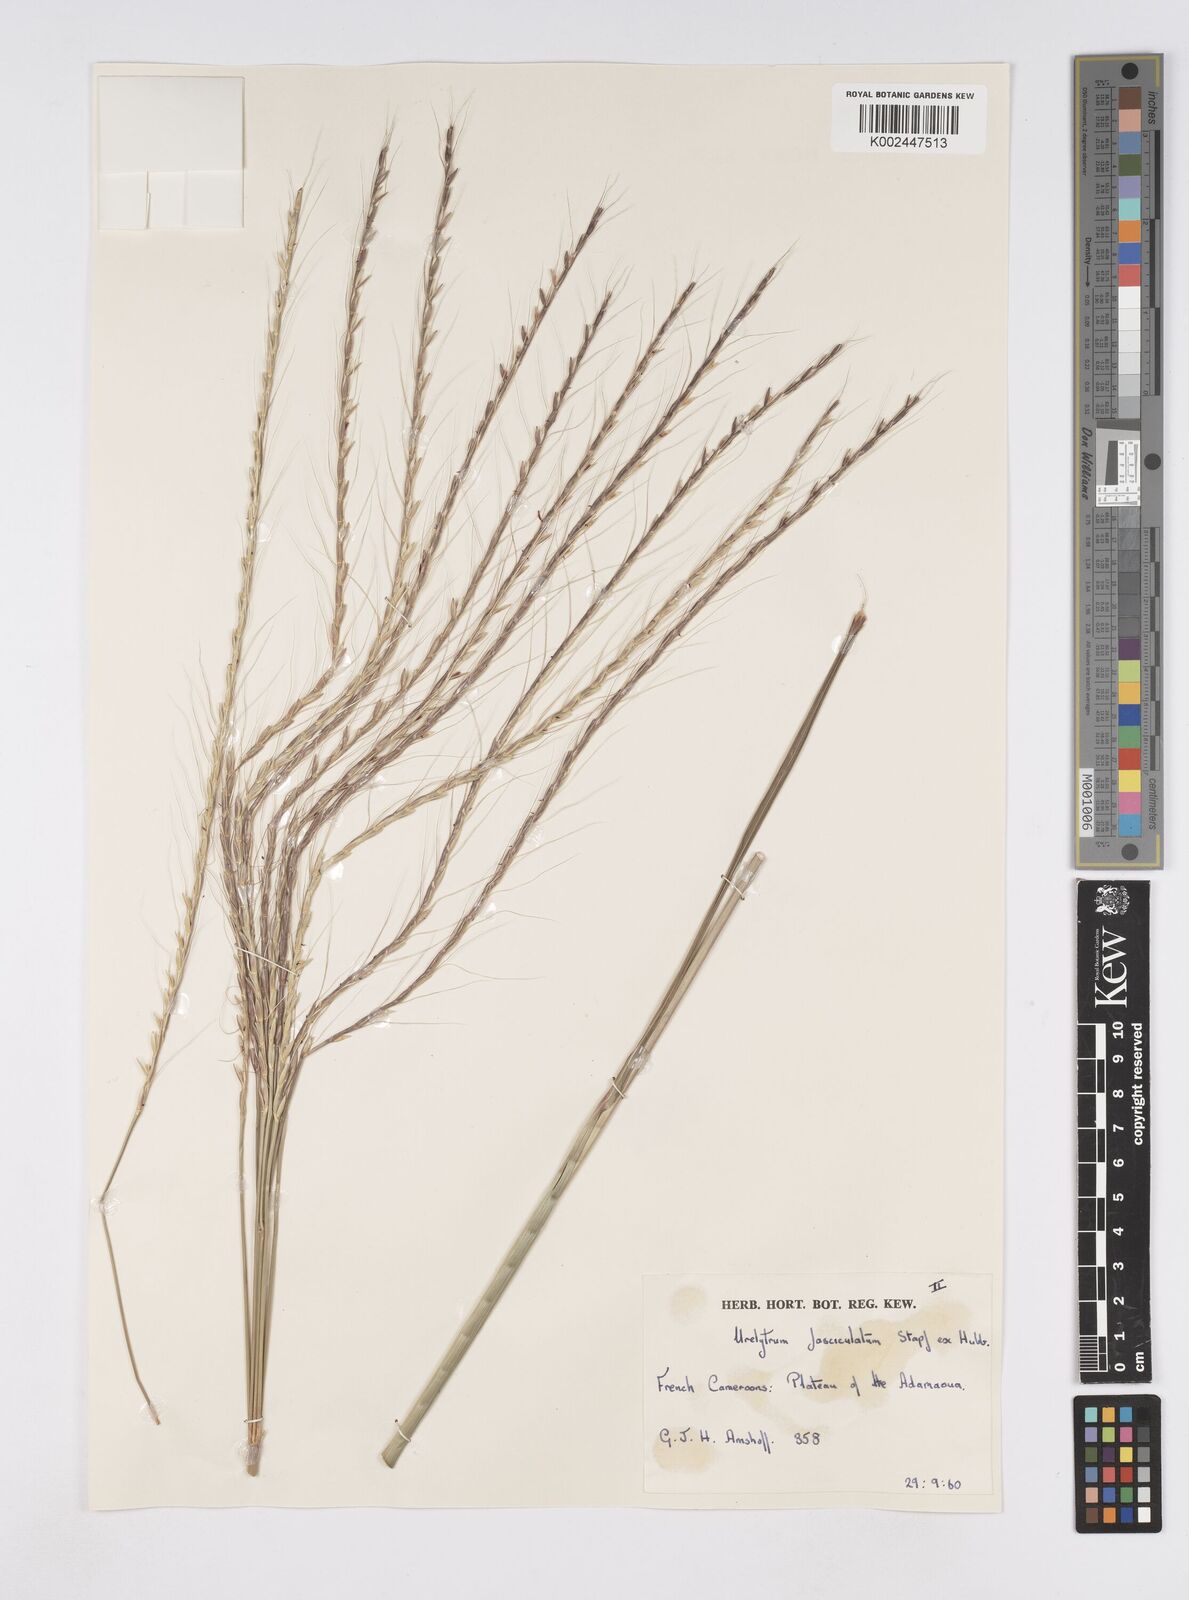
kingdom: Plantae
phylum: Tracheophyta
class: Liliopsida
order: Poales
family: Poaceae
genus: Urelytrum
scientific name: Urelytrum digitatum
